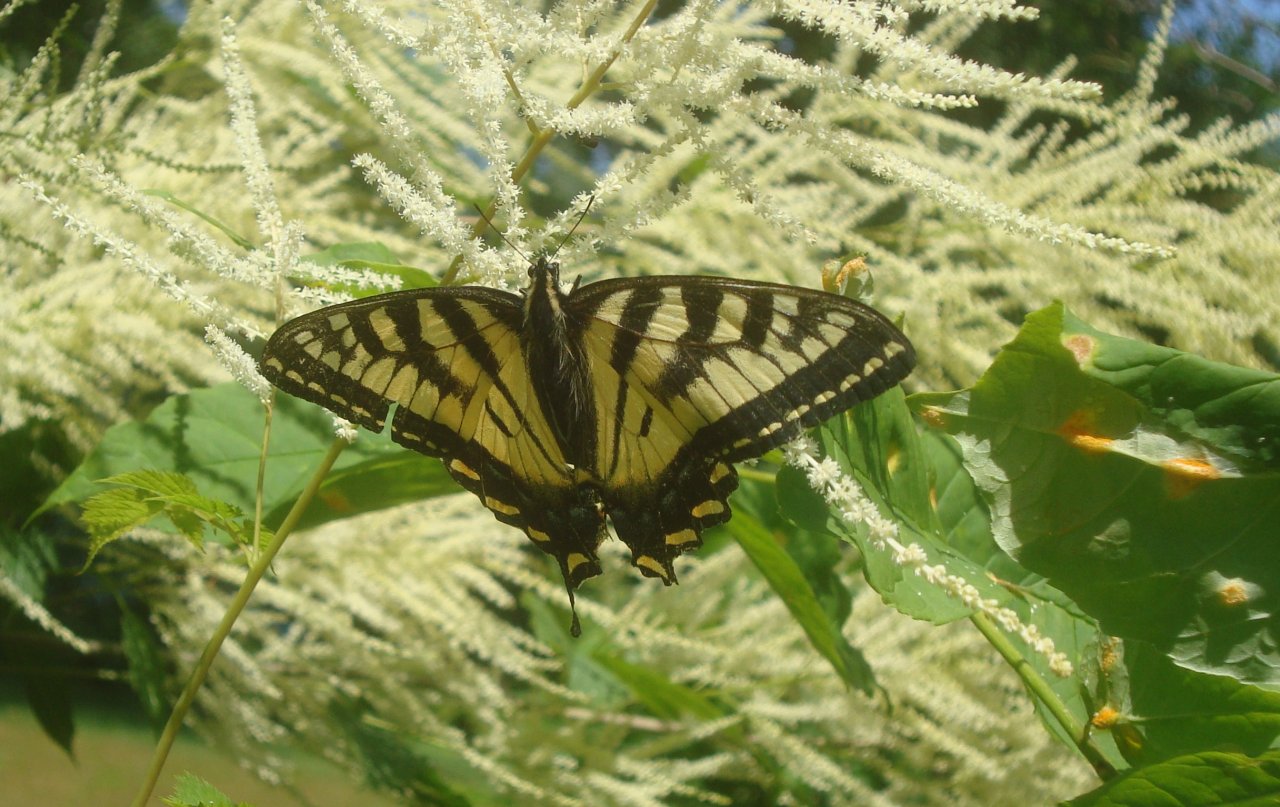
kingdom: Animalia
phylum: Arthropoda
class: Insecta
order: Lepidoptera
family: Papilionidae
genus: Pterourus
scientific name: Pterourus canadensis
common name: Canadian Tiger Swallowtail
